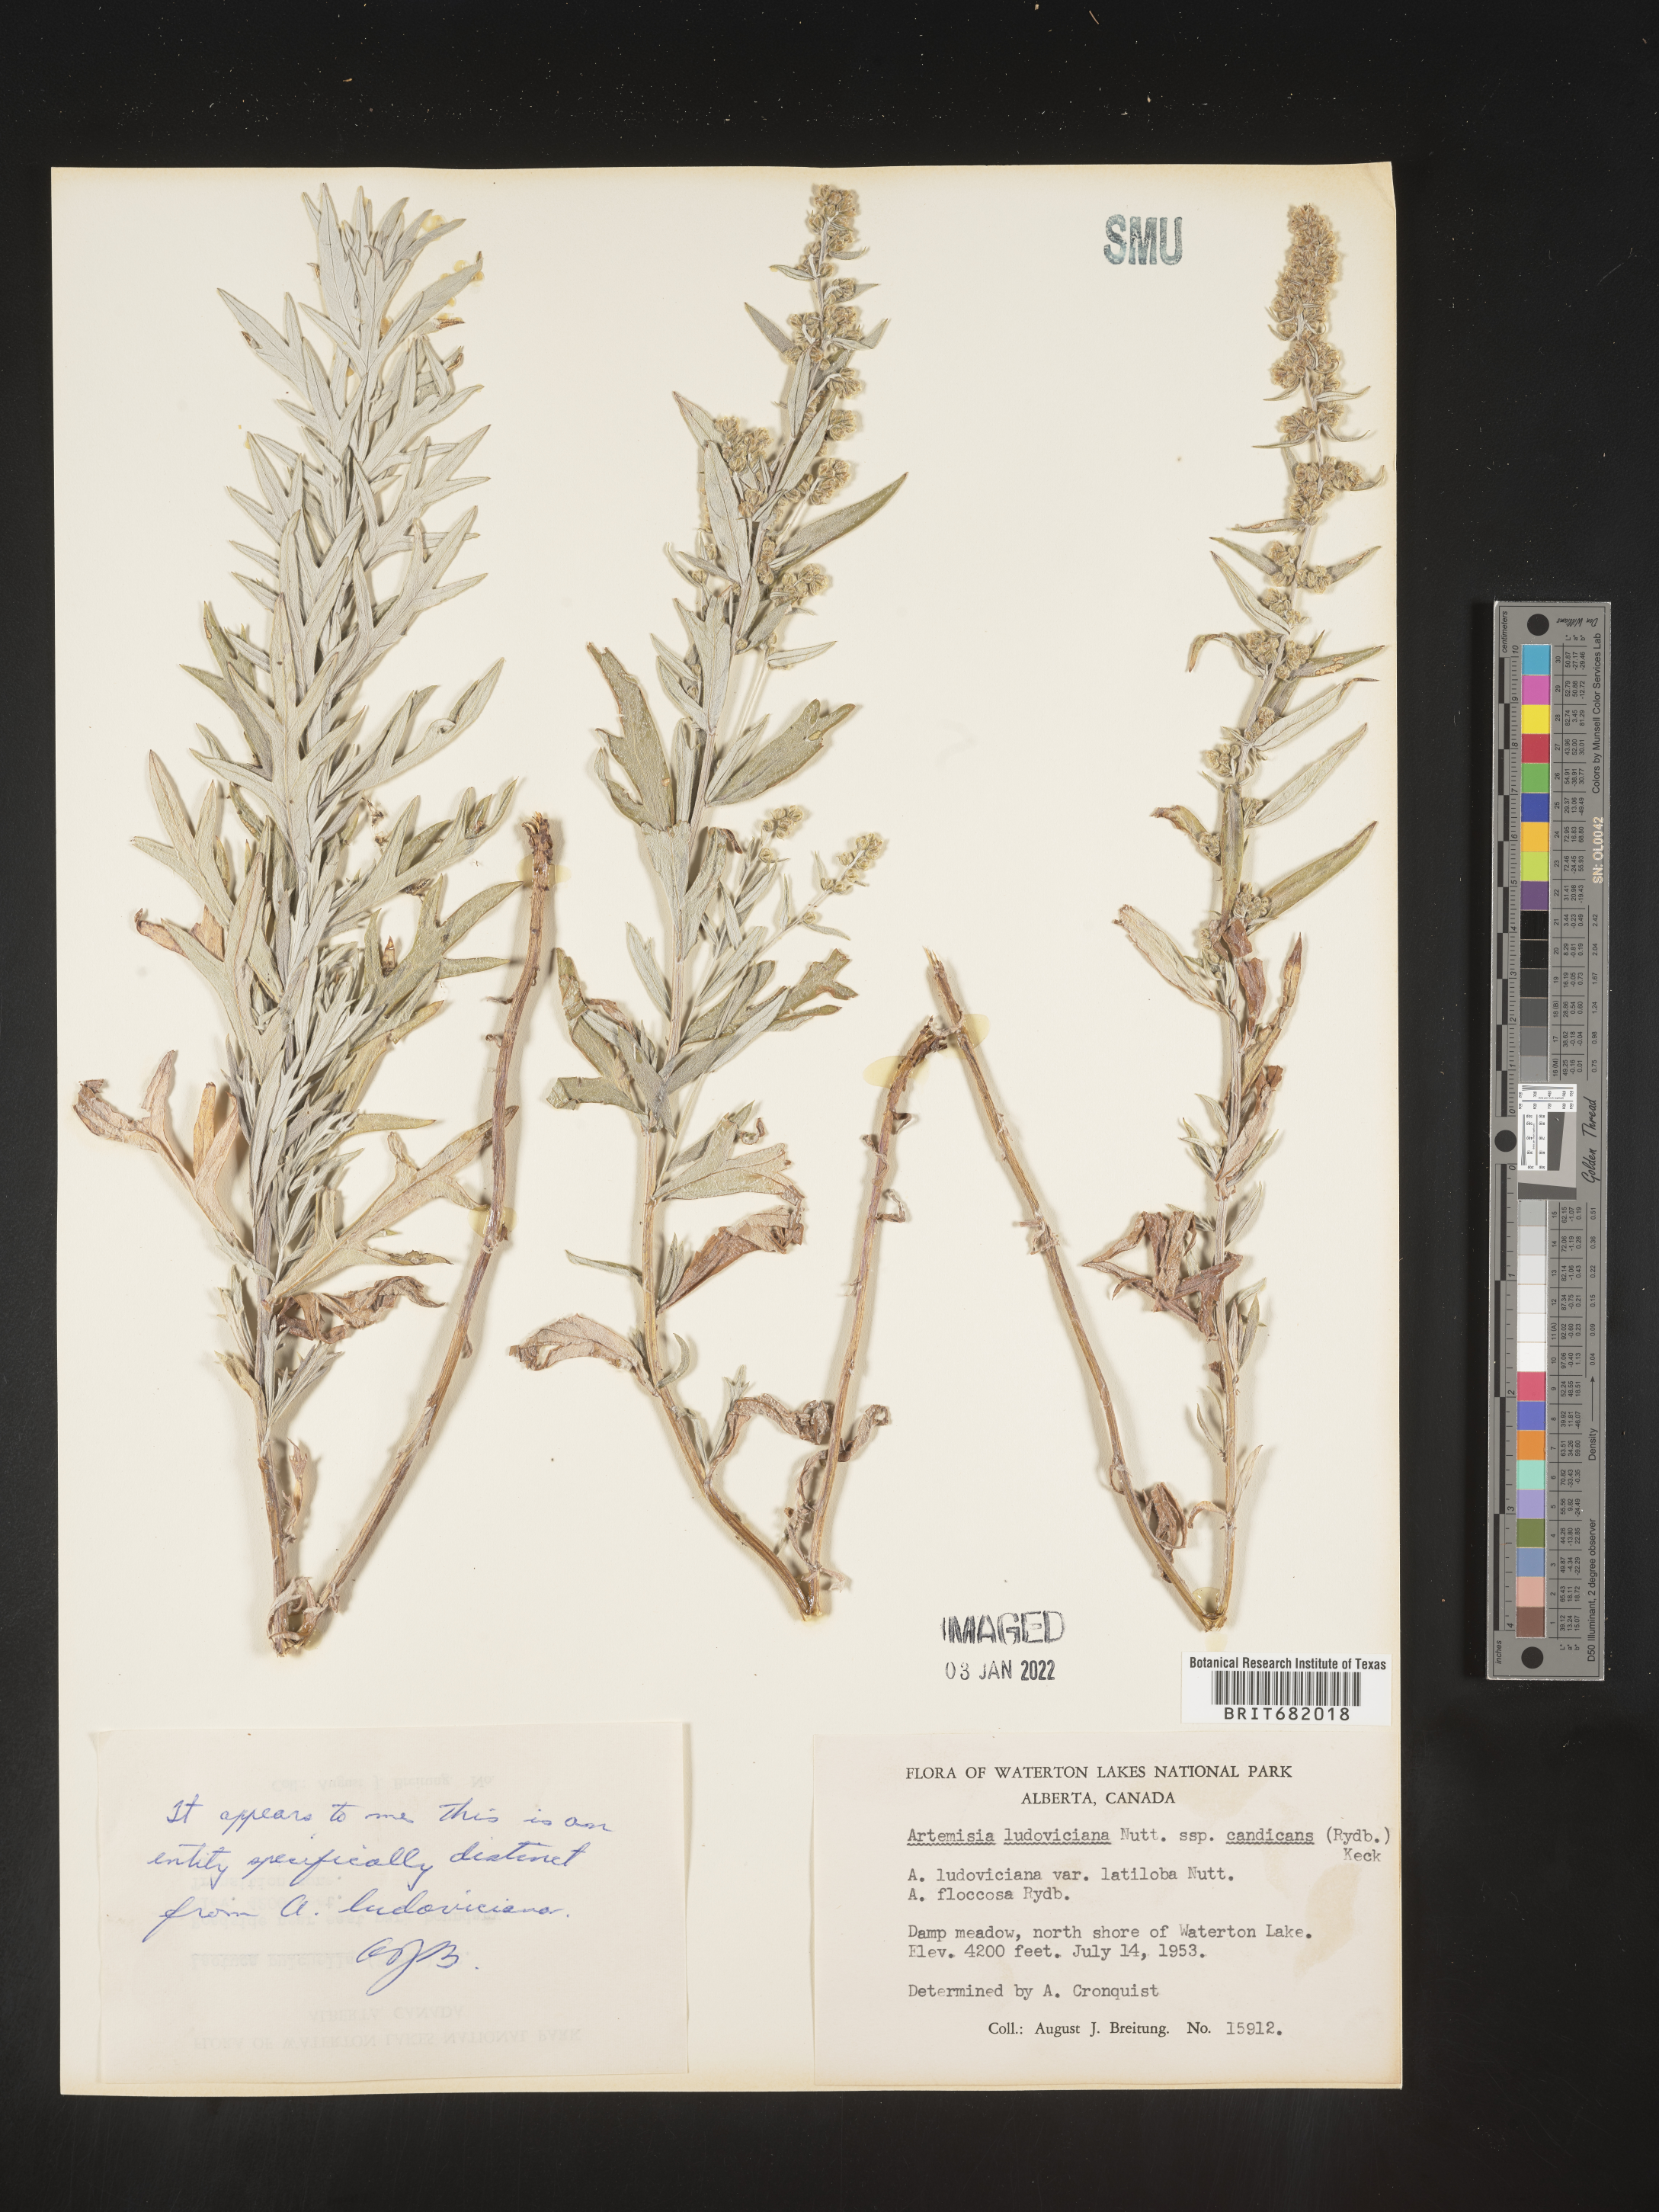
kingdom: Plantae
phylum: Tracheophyta
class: Magnoliopsida
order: Asterales
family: Asteraceae
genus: Artemisia
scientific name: Artemisia ludoviciana
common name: Western mugwort
